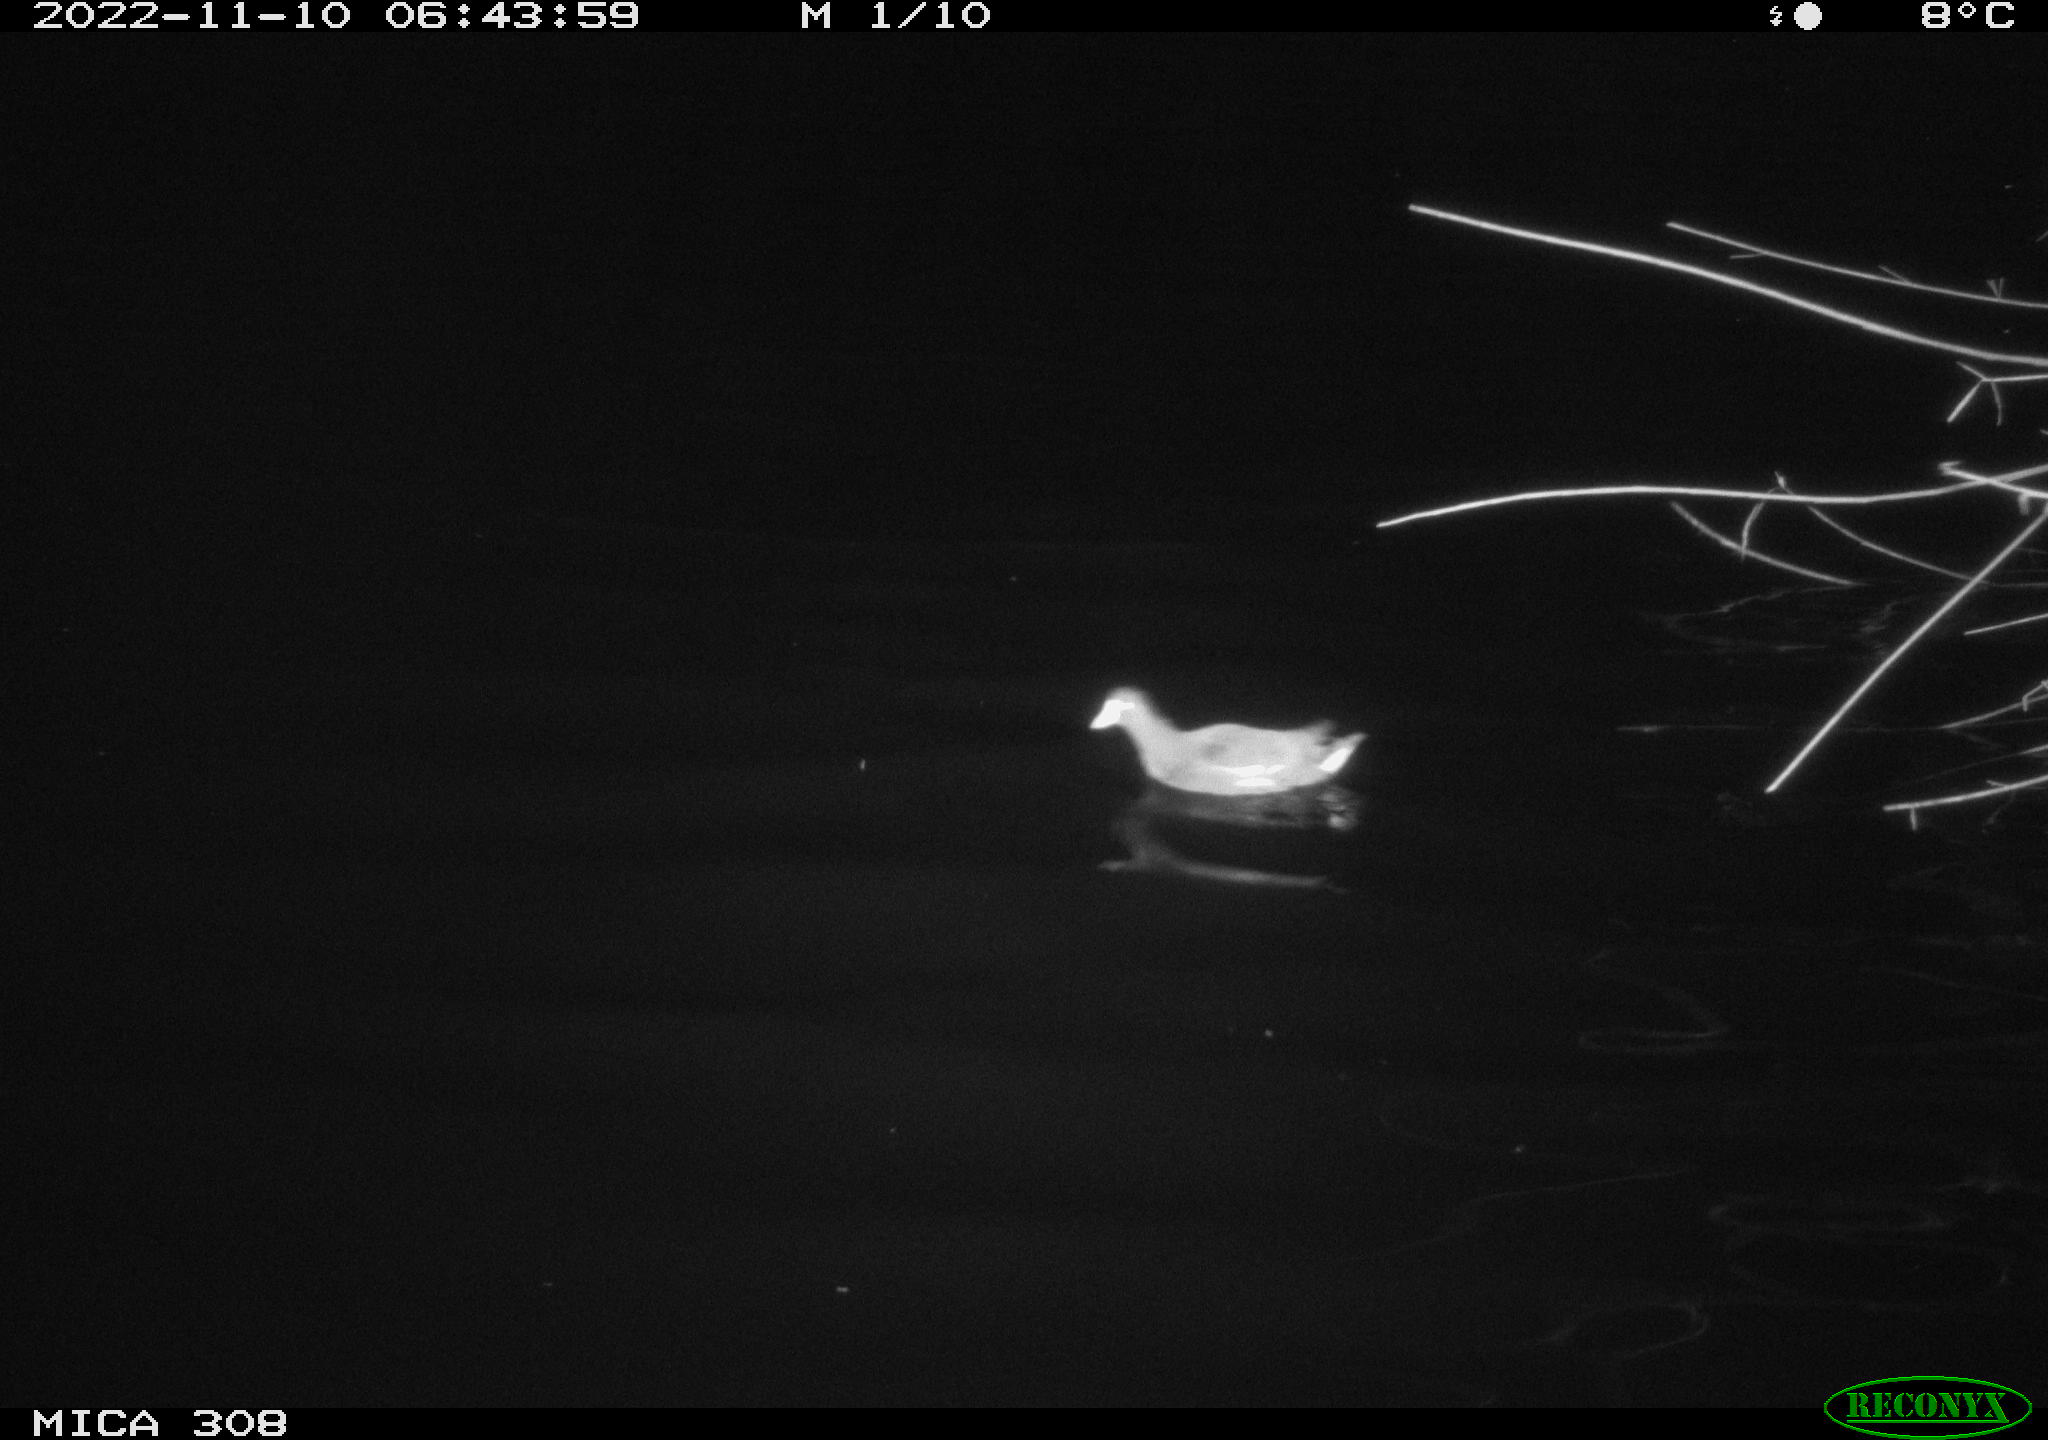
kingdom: Animalia
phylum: Chordata
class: Aves
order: Gruiformes
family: Rallidae
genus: Gallinula
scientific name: Gallinula chloropus
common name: Common moorhen
